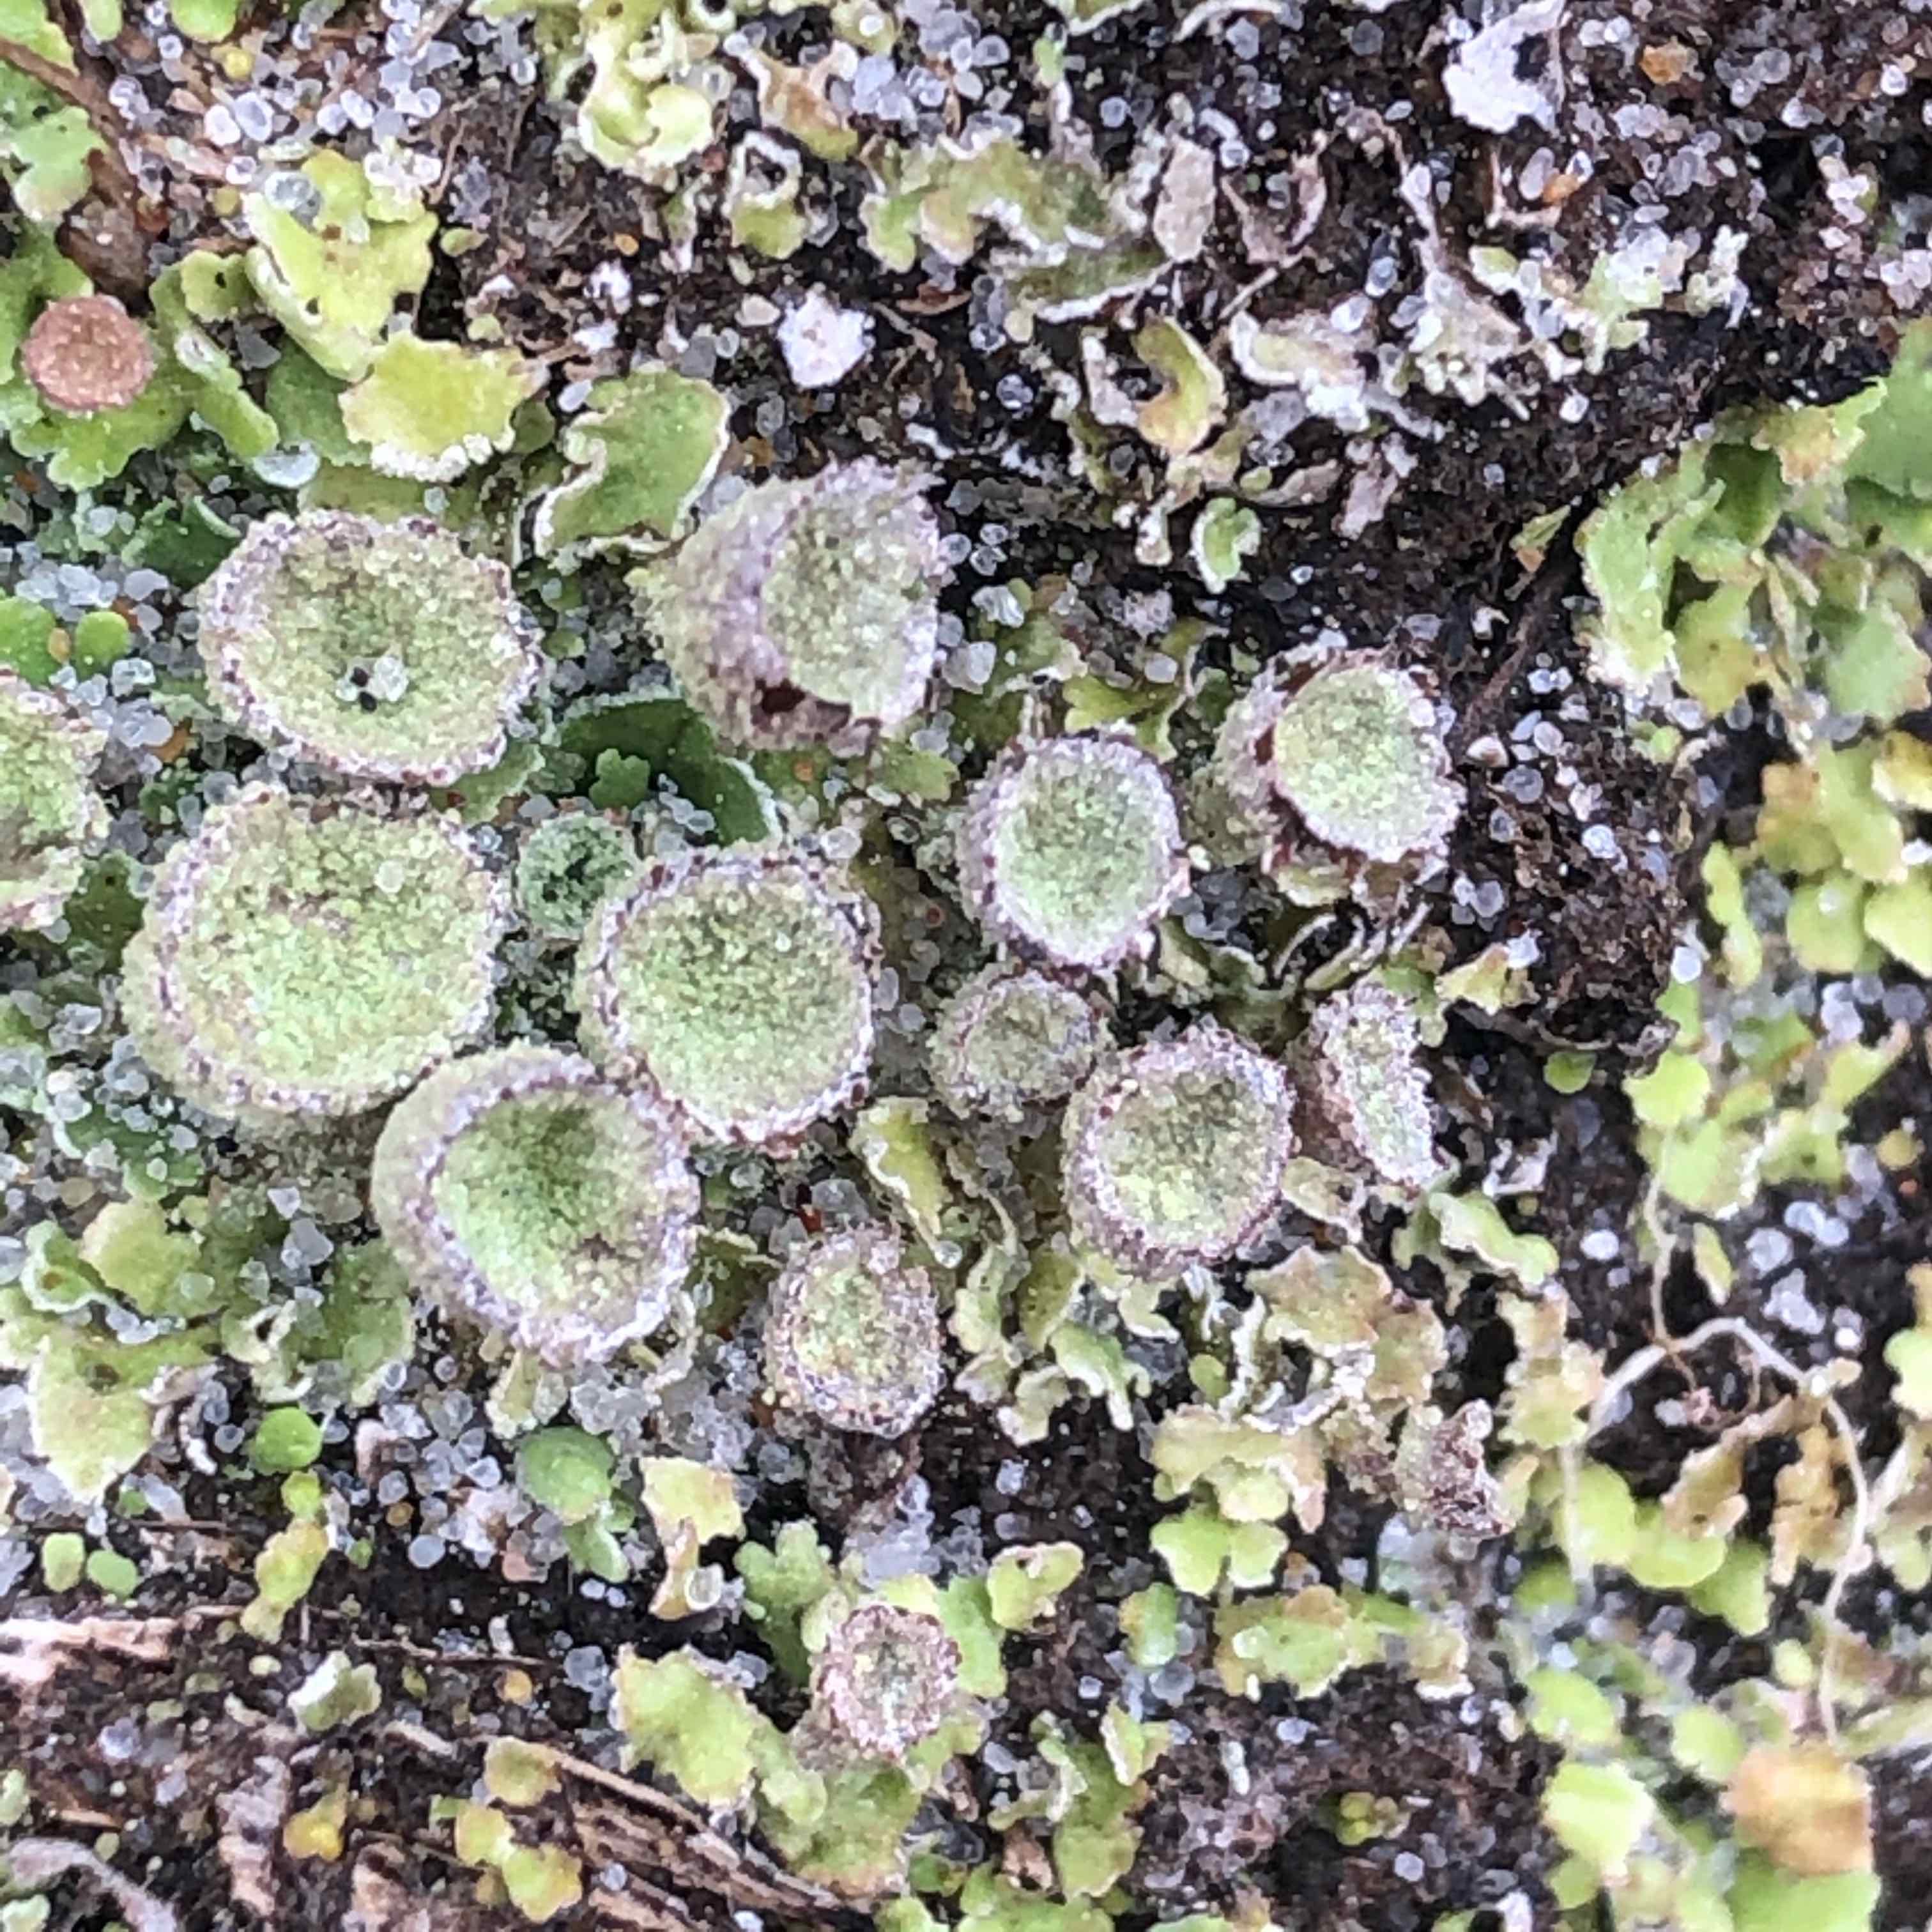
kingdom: Fungi
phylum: Ascomycota
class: Lecanoromycetes
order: Lecanorales
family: Cladoniaceae
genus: Cladonia
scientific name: Cladonia humilis
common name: lav bægerlav
